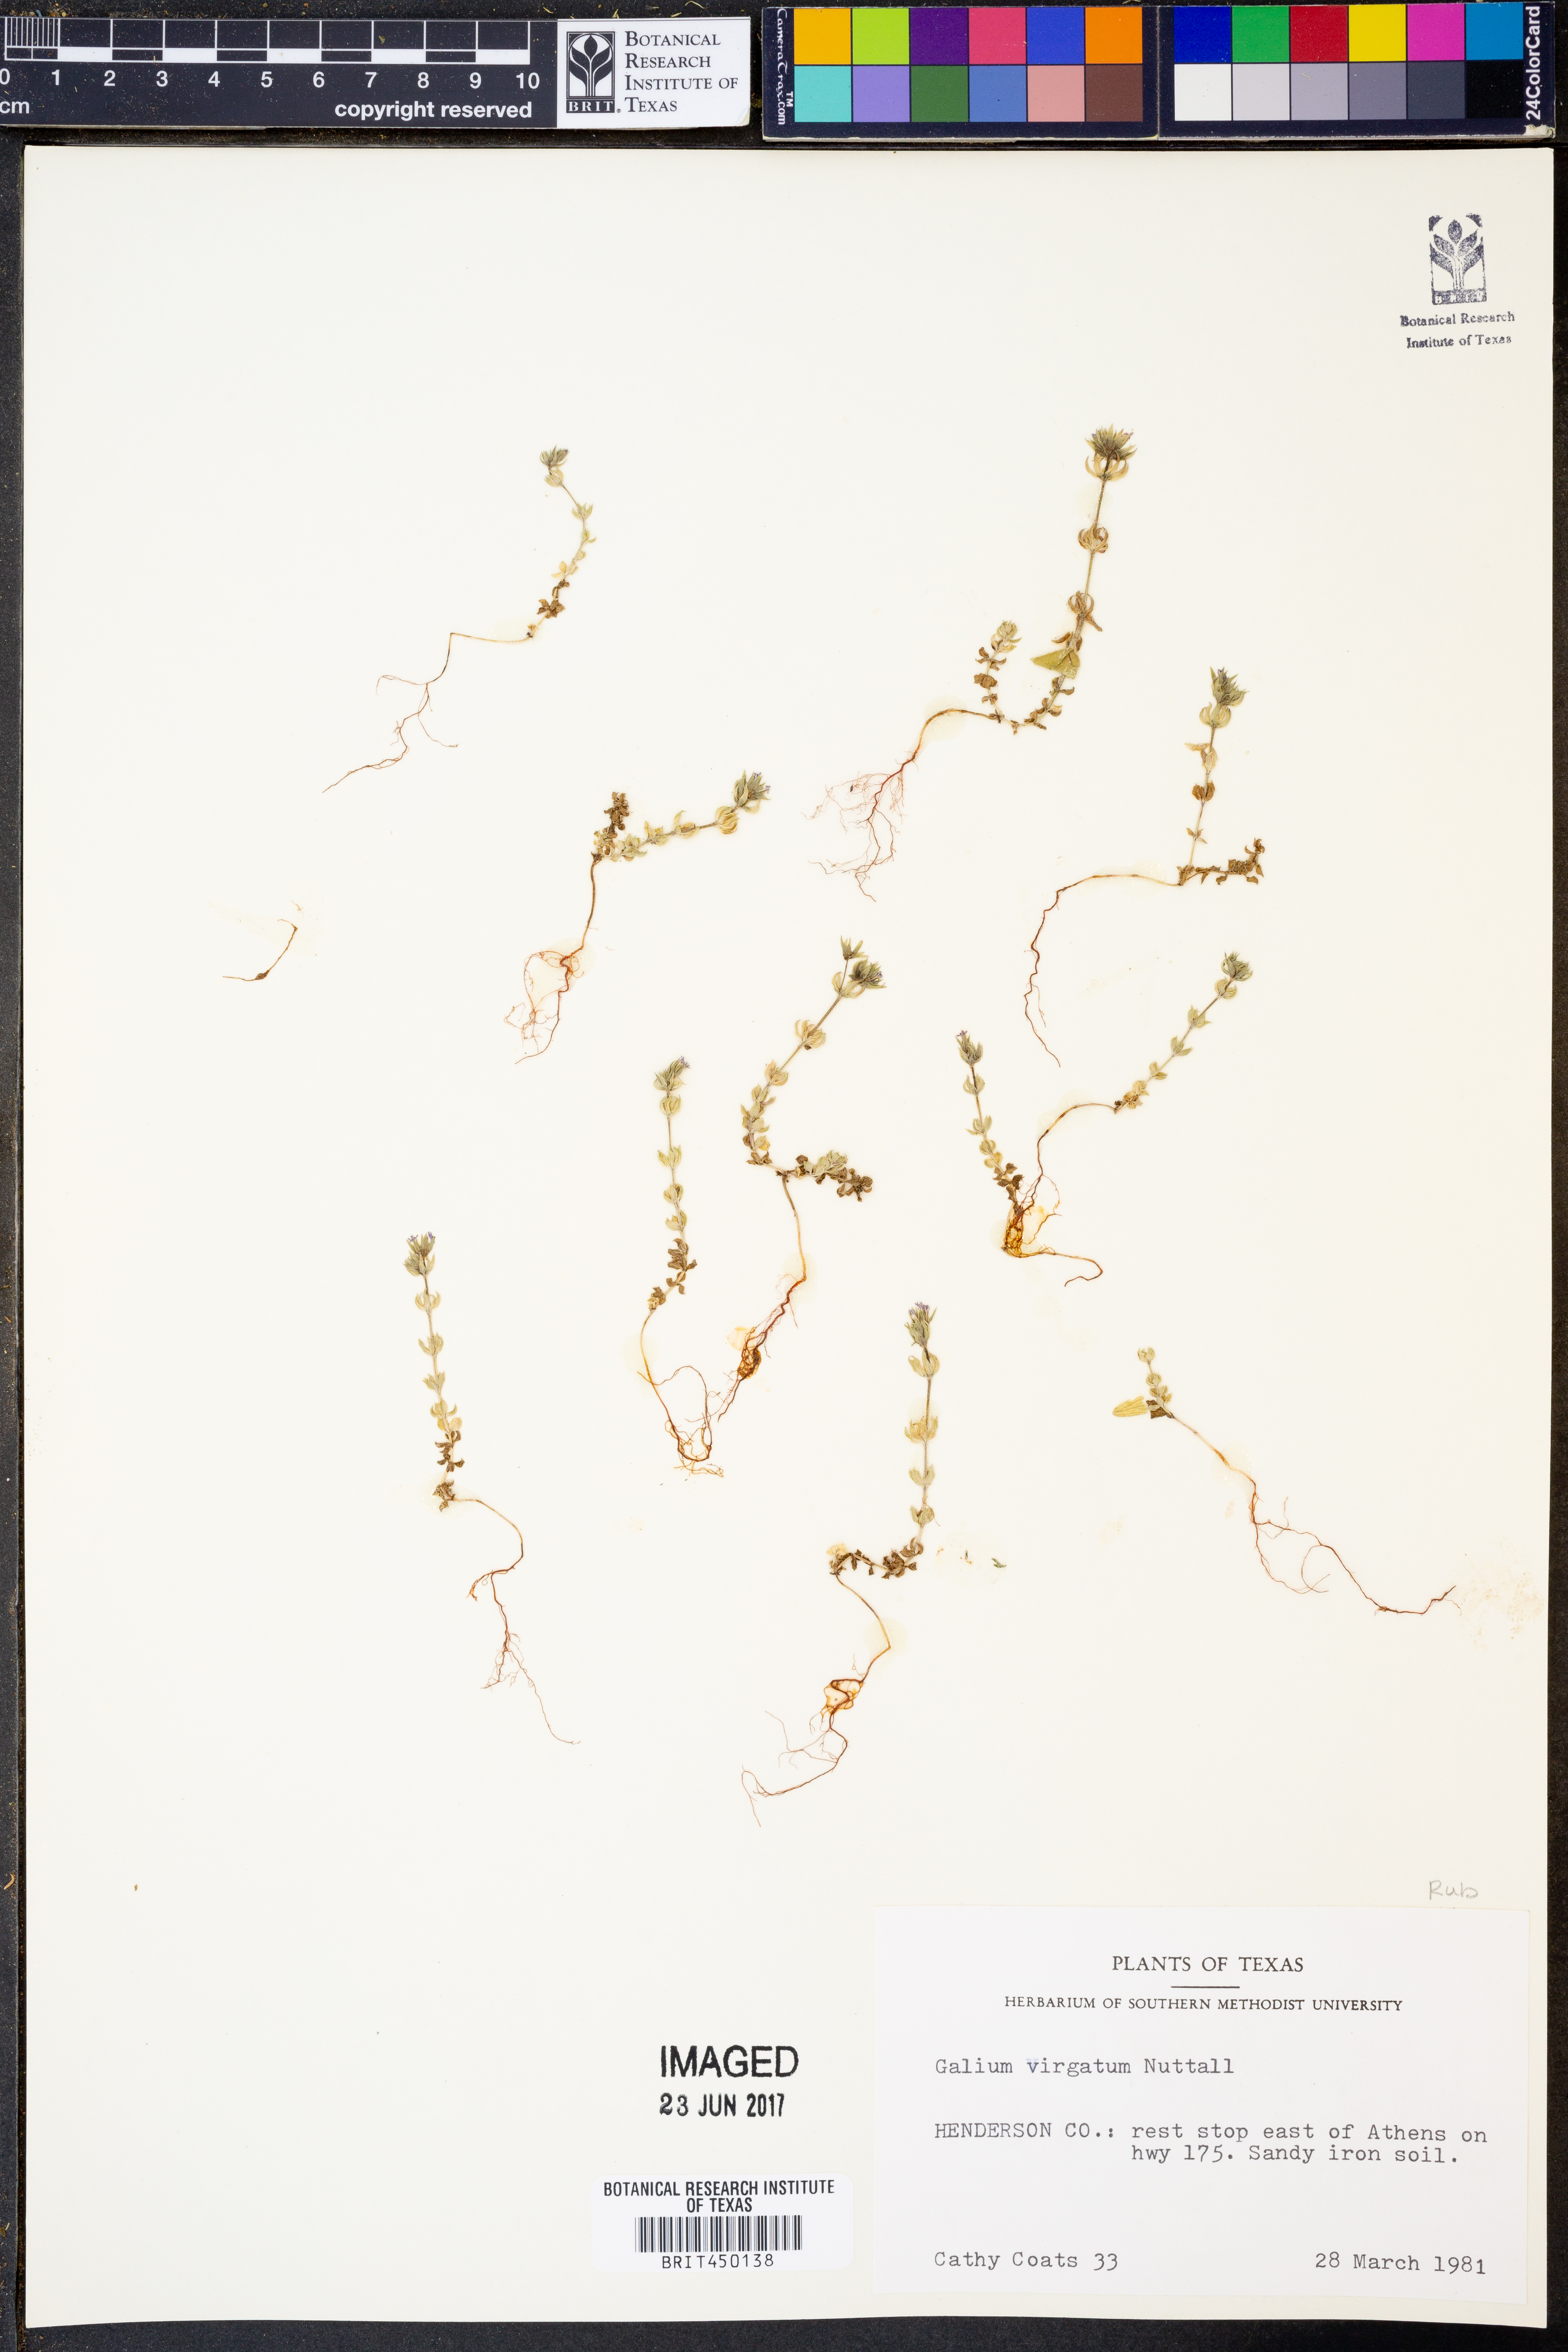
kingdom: Plantae
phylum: Tracheophyta
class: Magnoliopsida
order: Gentianales
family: Rubiaceae
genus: Galium
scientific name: Galium virgatum
